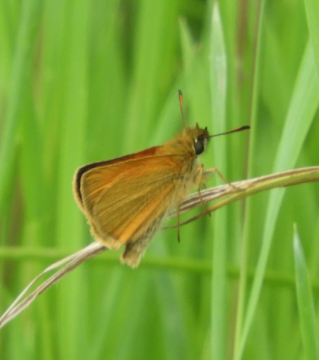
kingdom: Animalia
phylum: Arthropoda
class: Insecta
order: Lepidoptera
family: Hesperiidae
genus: Thymelicus
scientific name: Thymelicus lineola
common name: European Skipper
